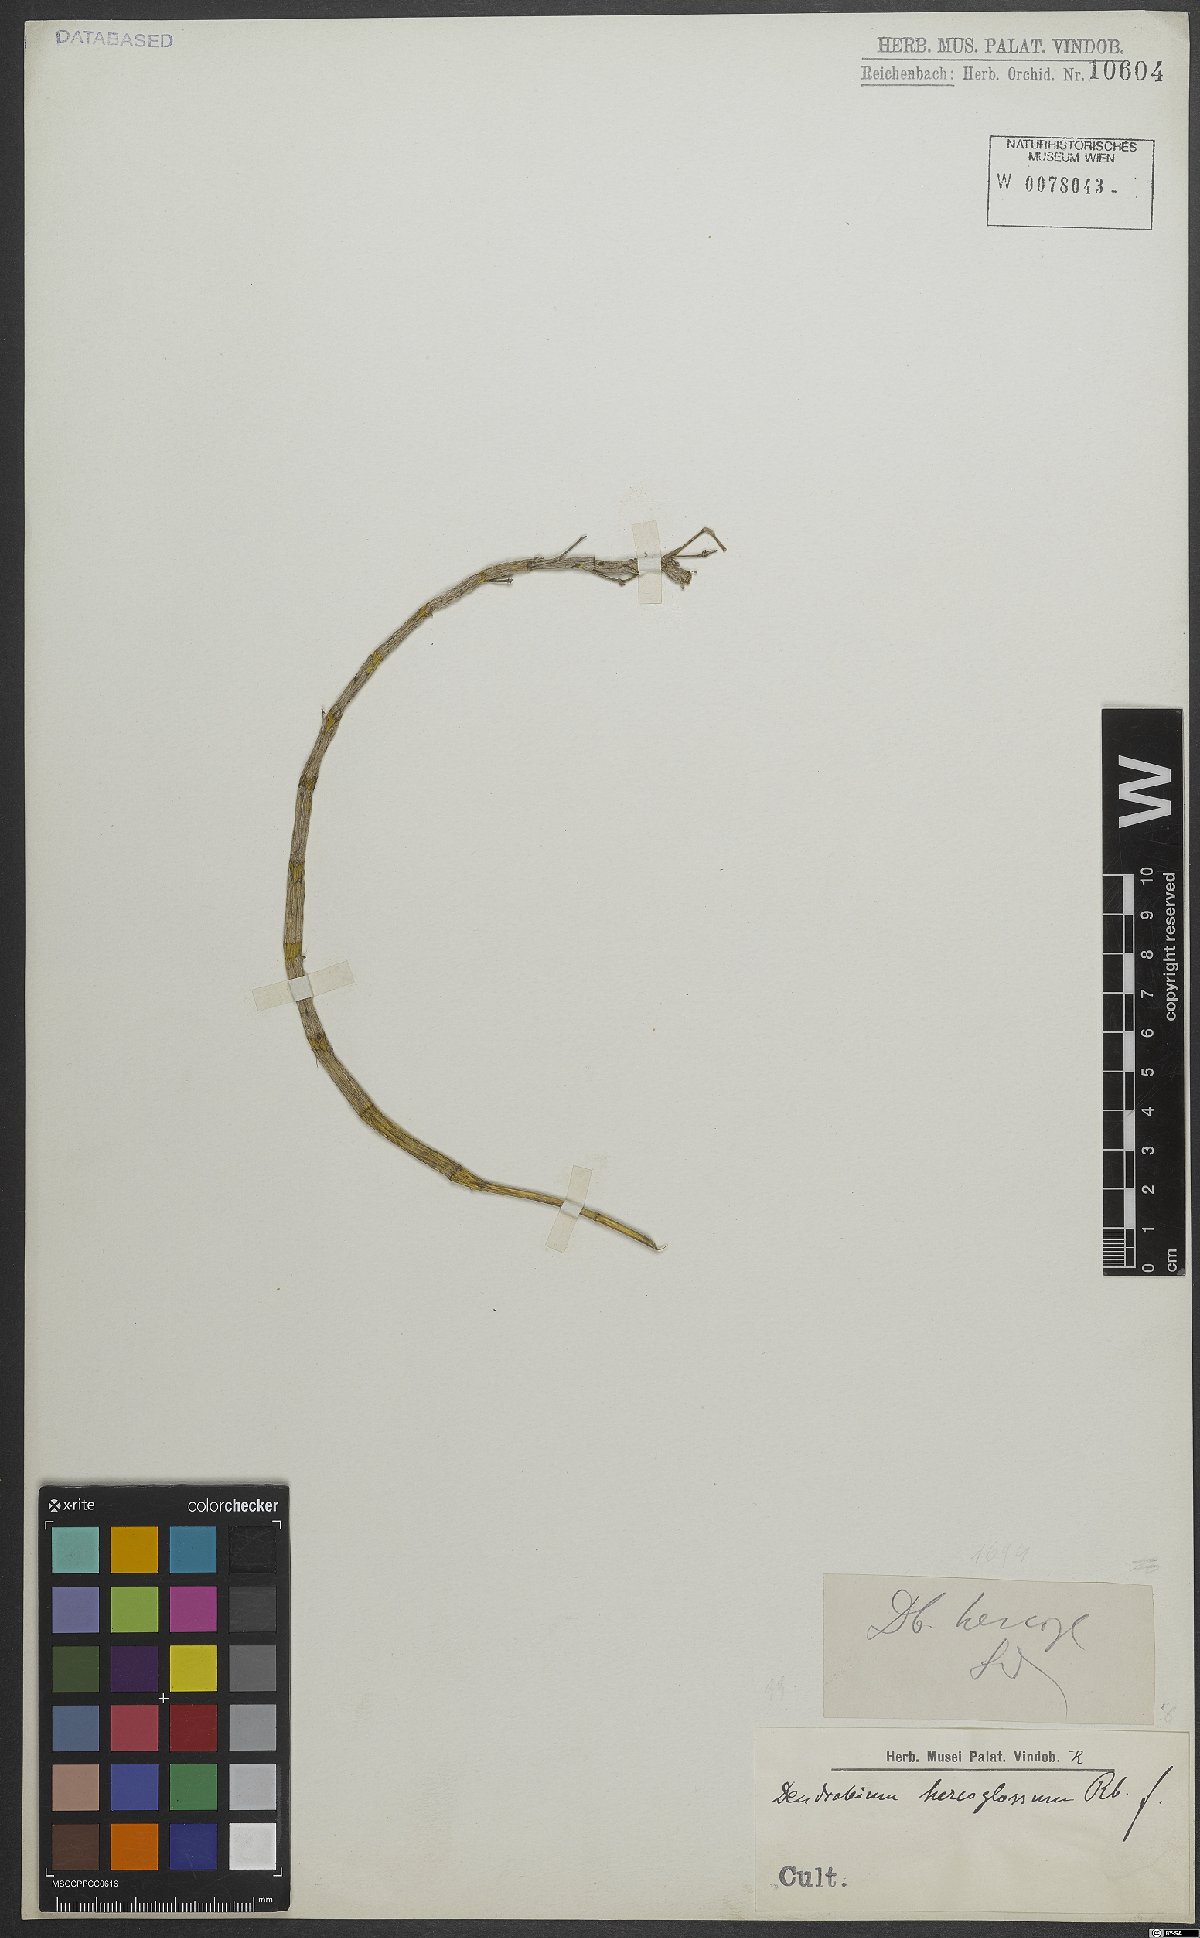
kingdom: Plantae
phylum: Tracheophyta
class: Liliopsida
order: Asparagales
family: Orchidaceae
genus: Dendrobium
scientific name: Dendrobium hercoglossum
